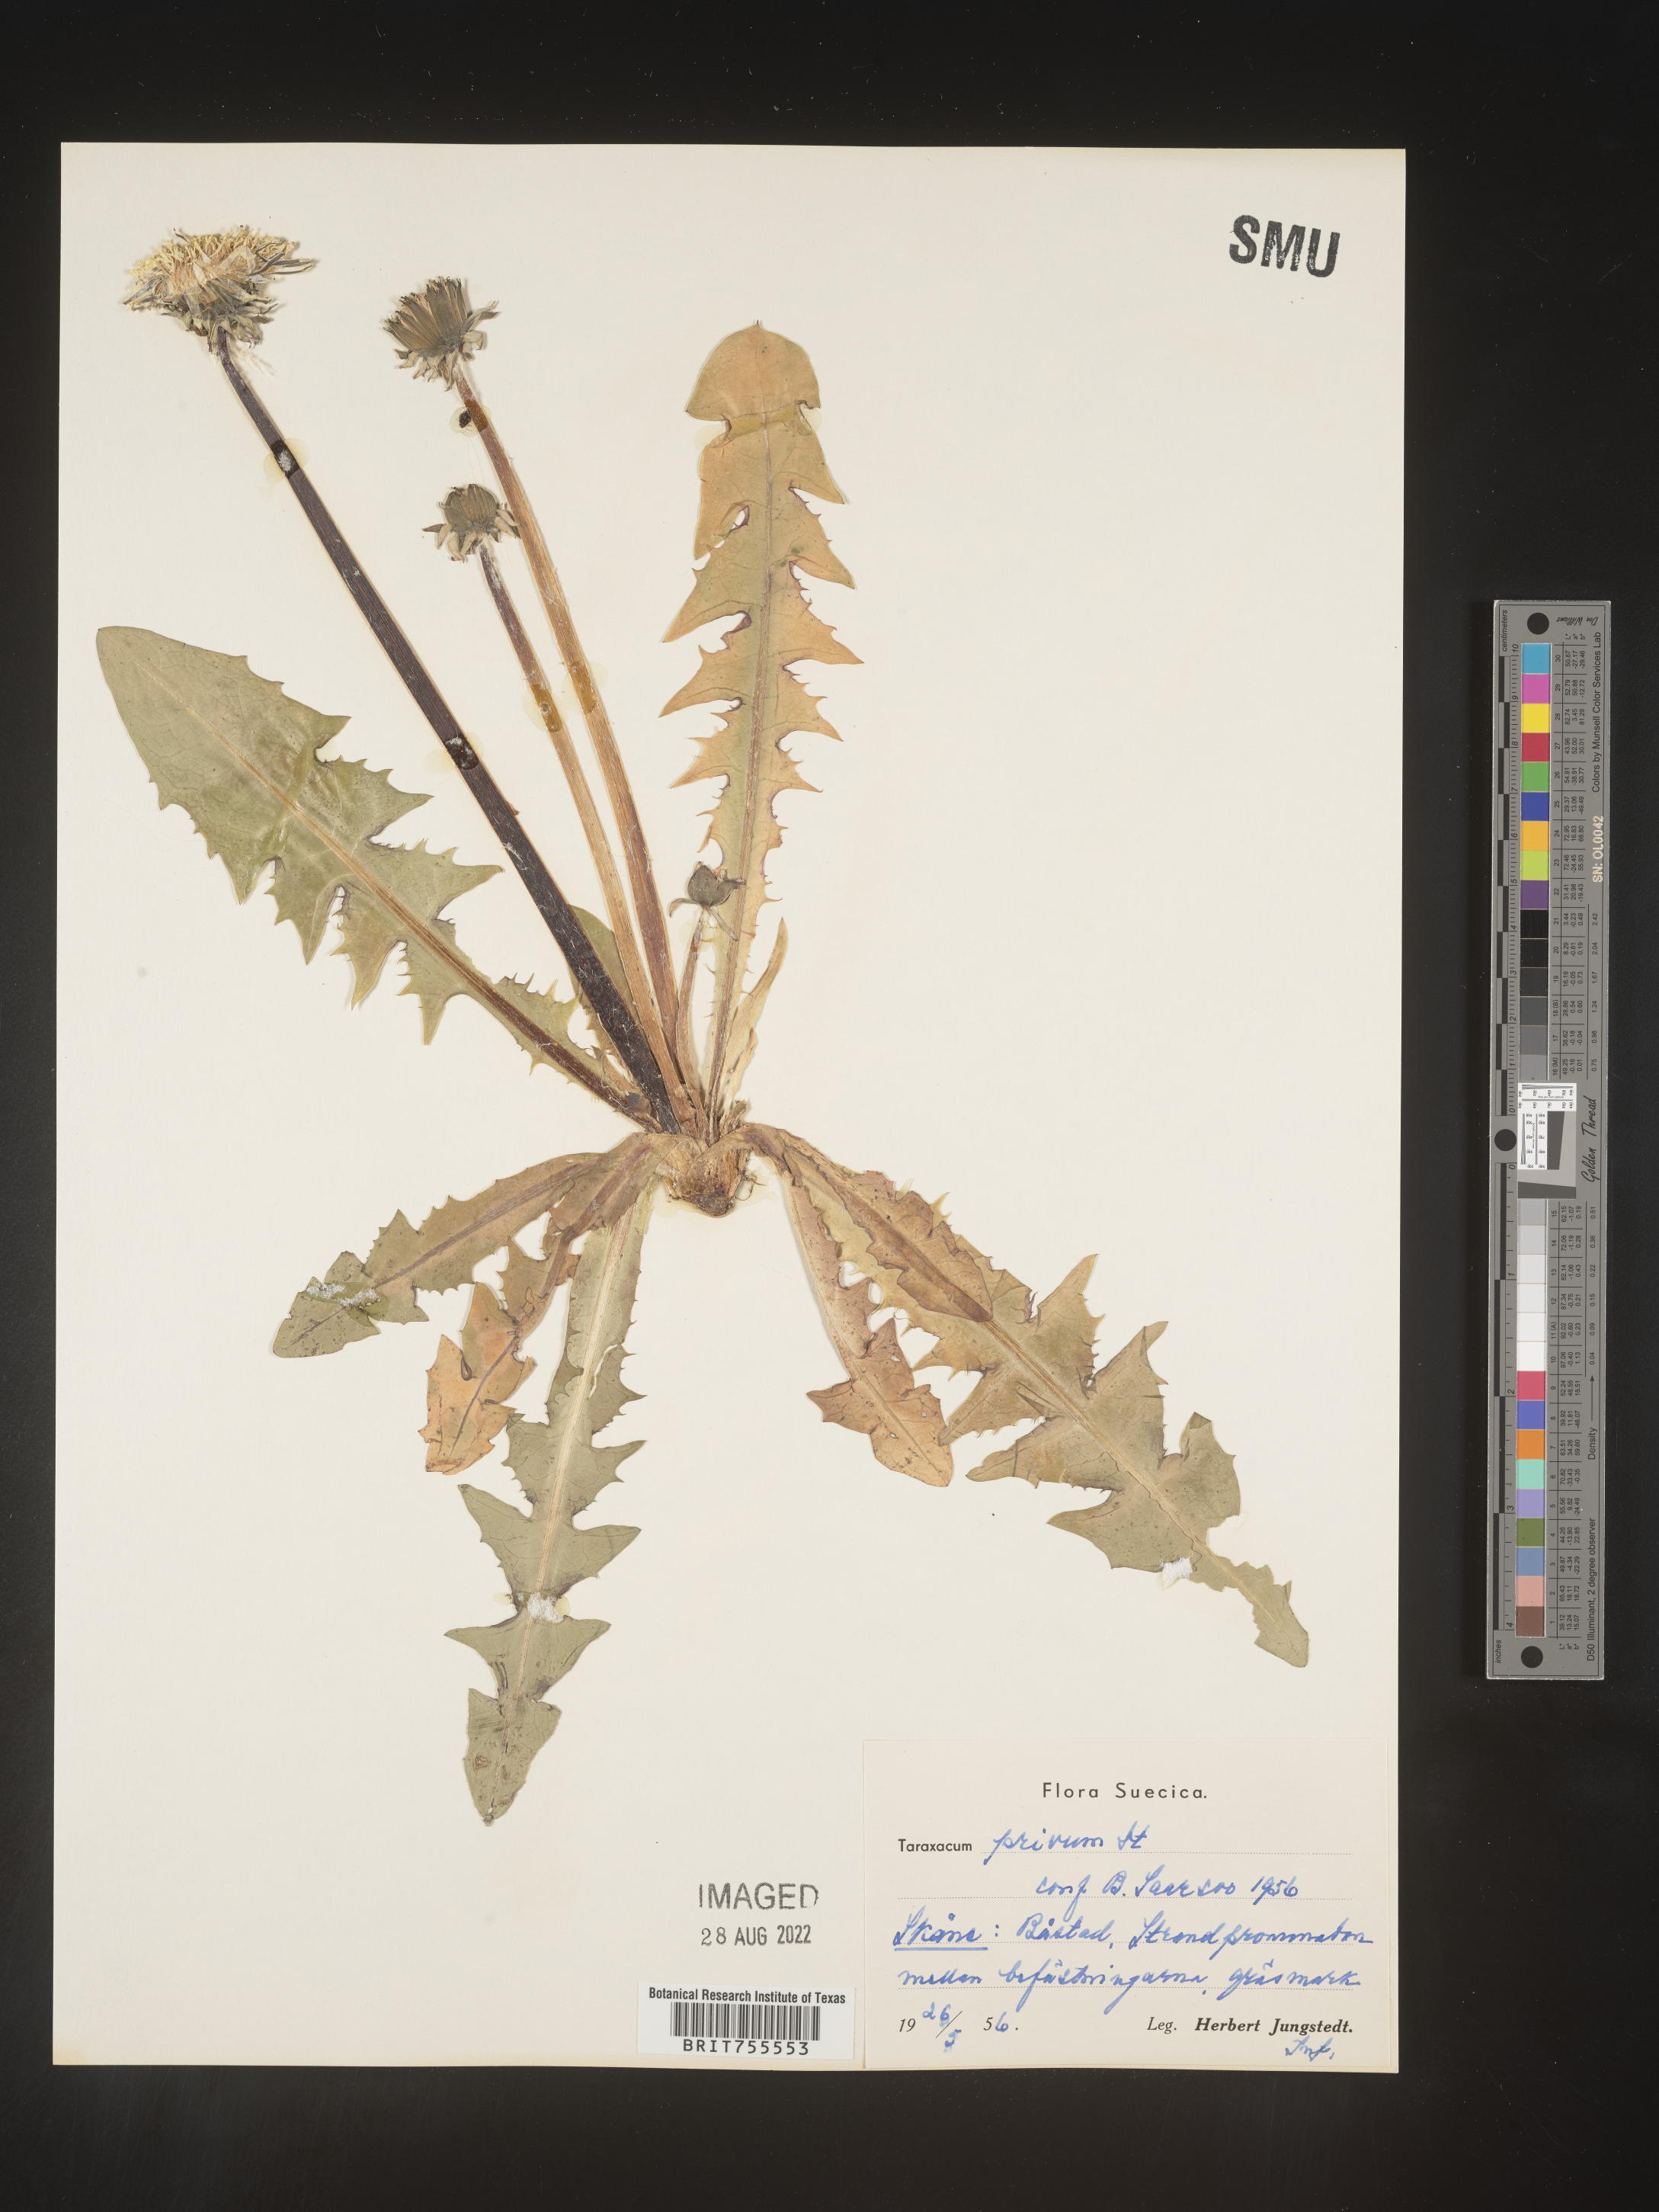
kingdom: Plantae
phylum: Tracheophyta
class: Magnoliopsida
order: Asterales
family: Asteraceae
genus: Taraxacum
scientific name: Taraxacum
